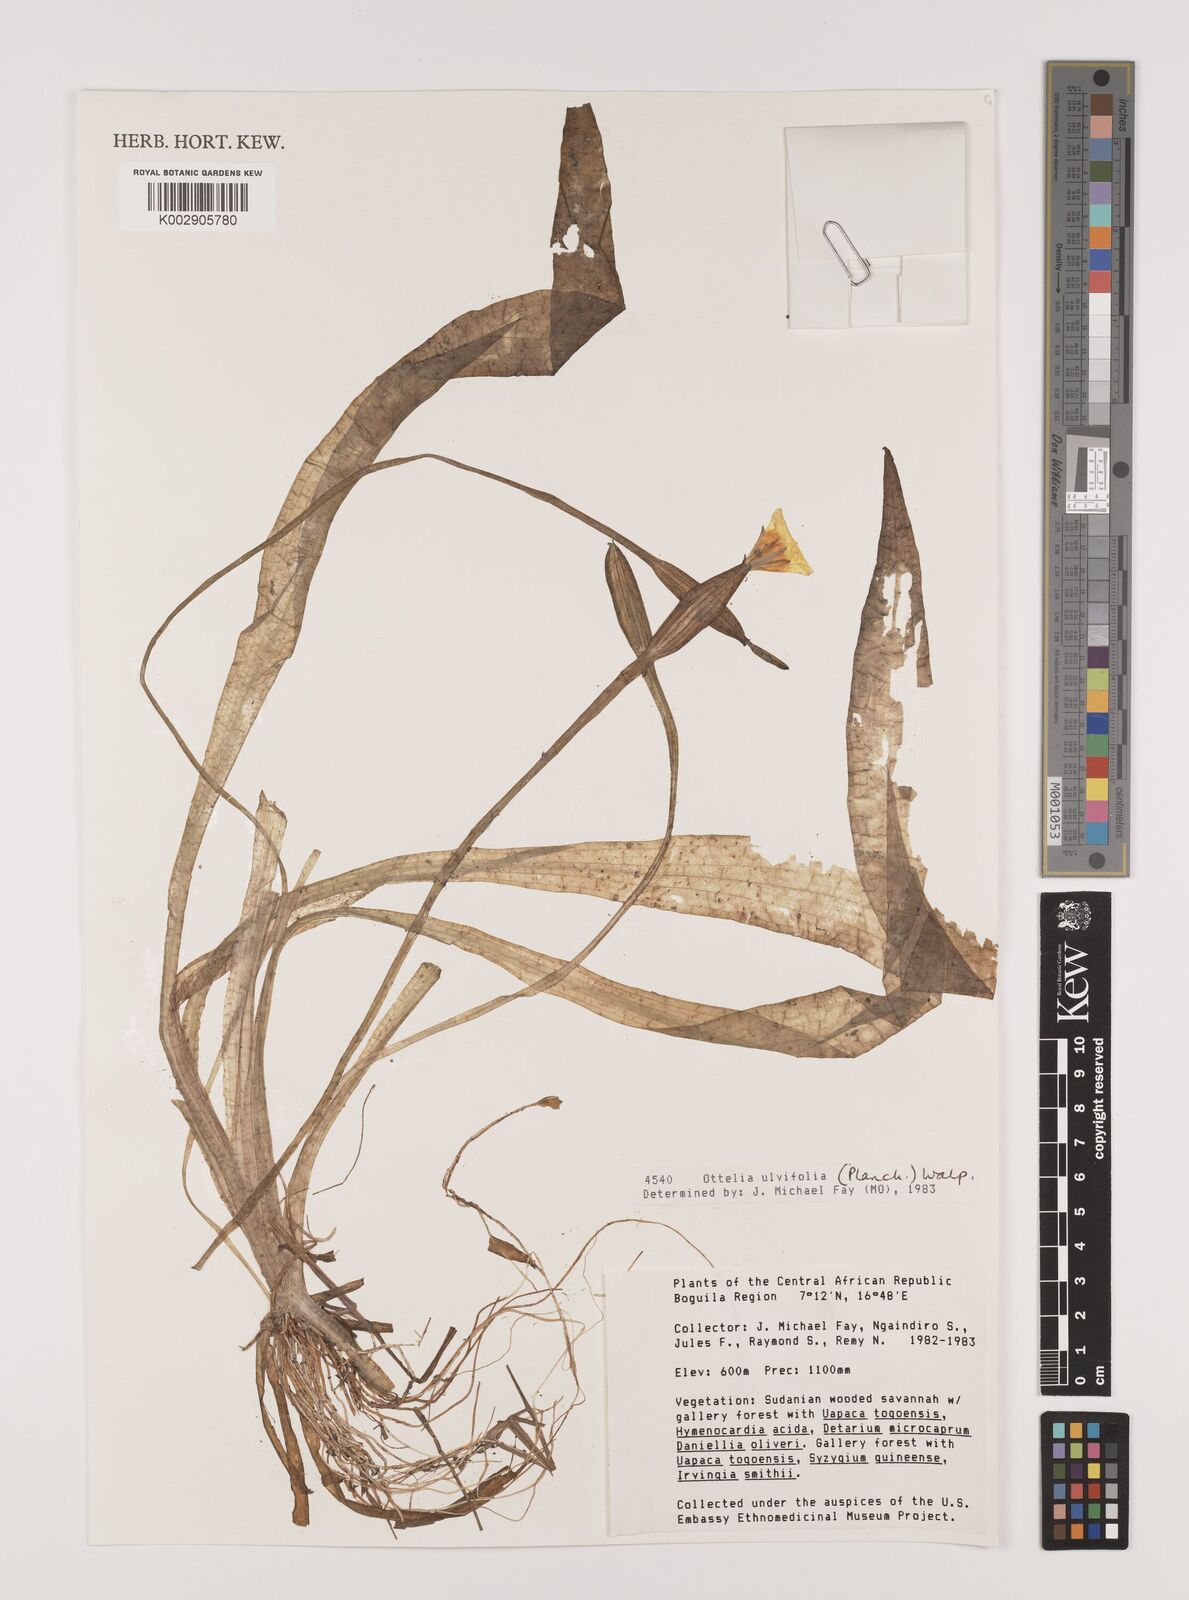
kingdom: Plantae
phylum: Tracheophyta
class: Liliopsida
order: Alismatales
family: Hydrocharitaceae
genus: Ottelia
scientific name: Ottelia ulvifolia
